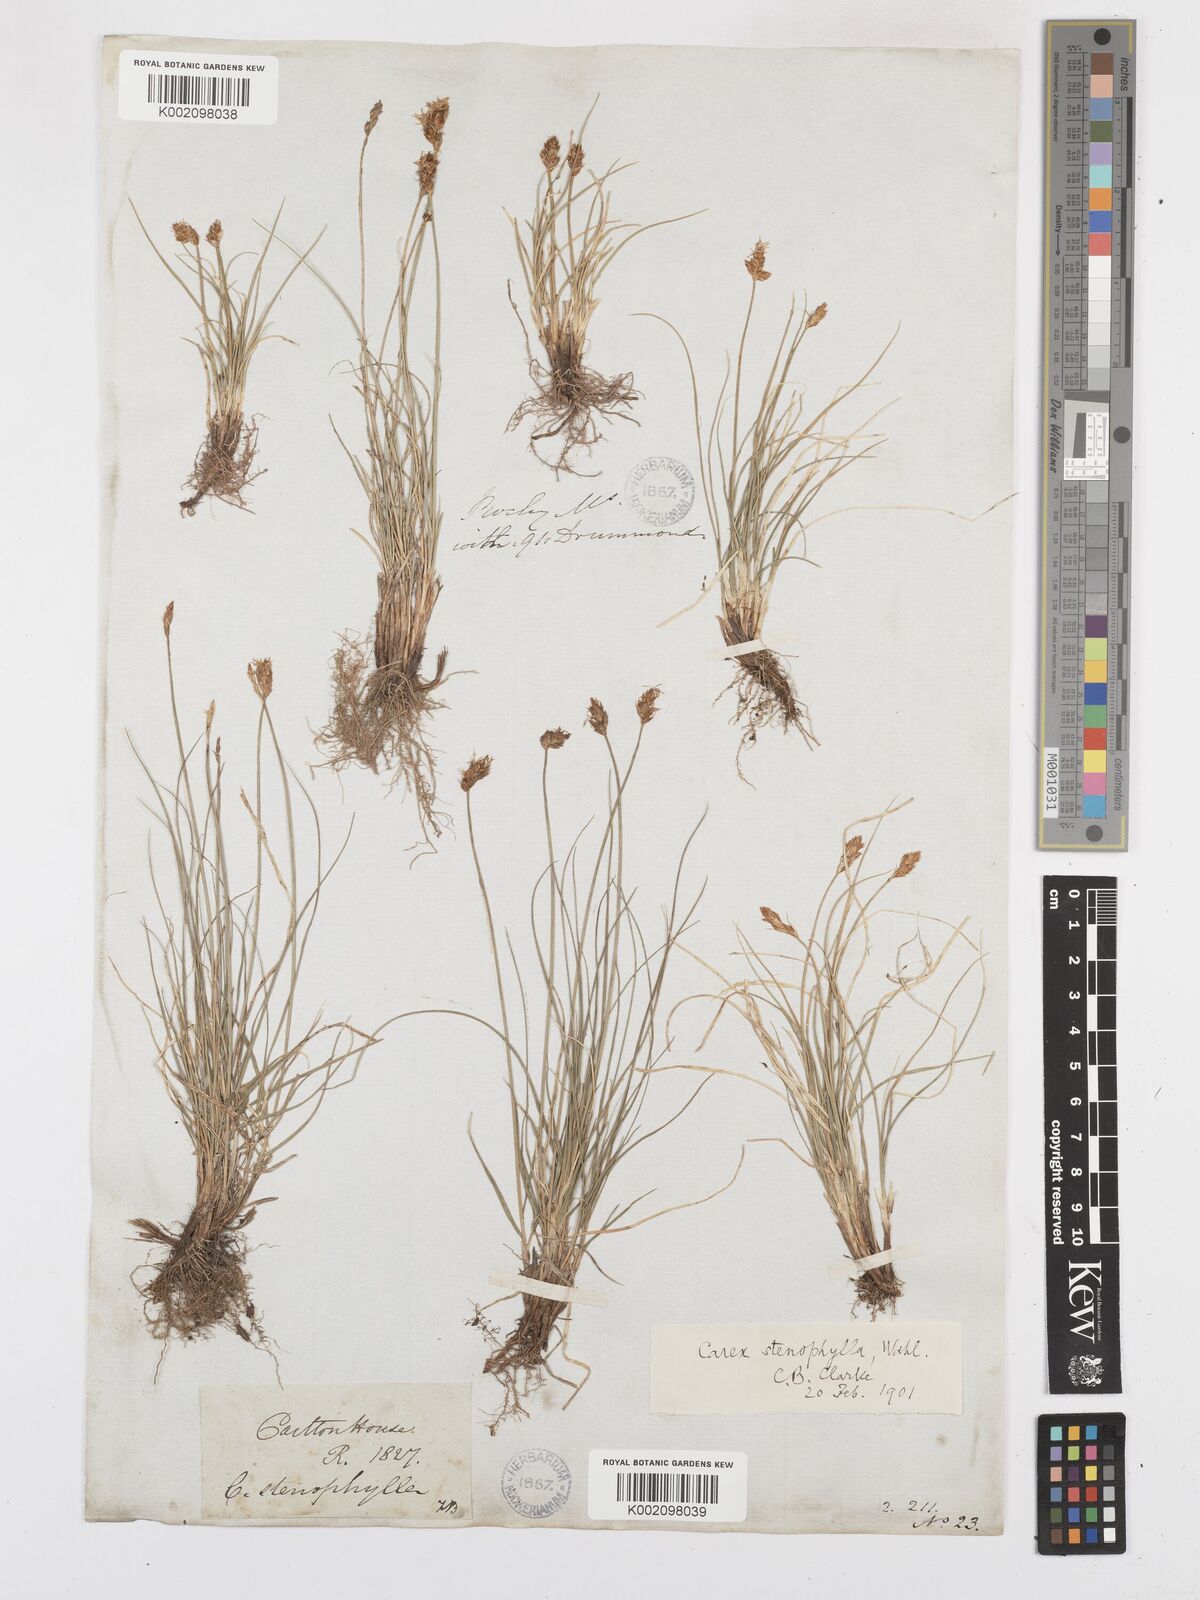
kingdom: Plantae
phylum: Tracheophyta
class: Liliopsida
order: Poales
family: Cyperaceae
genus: Carex
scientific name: Carex duriuscula
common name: Involute-leaved sedge
